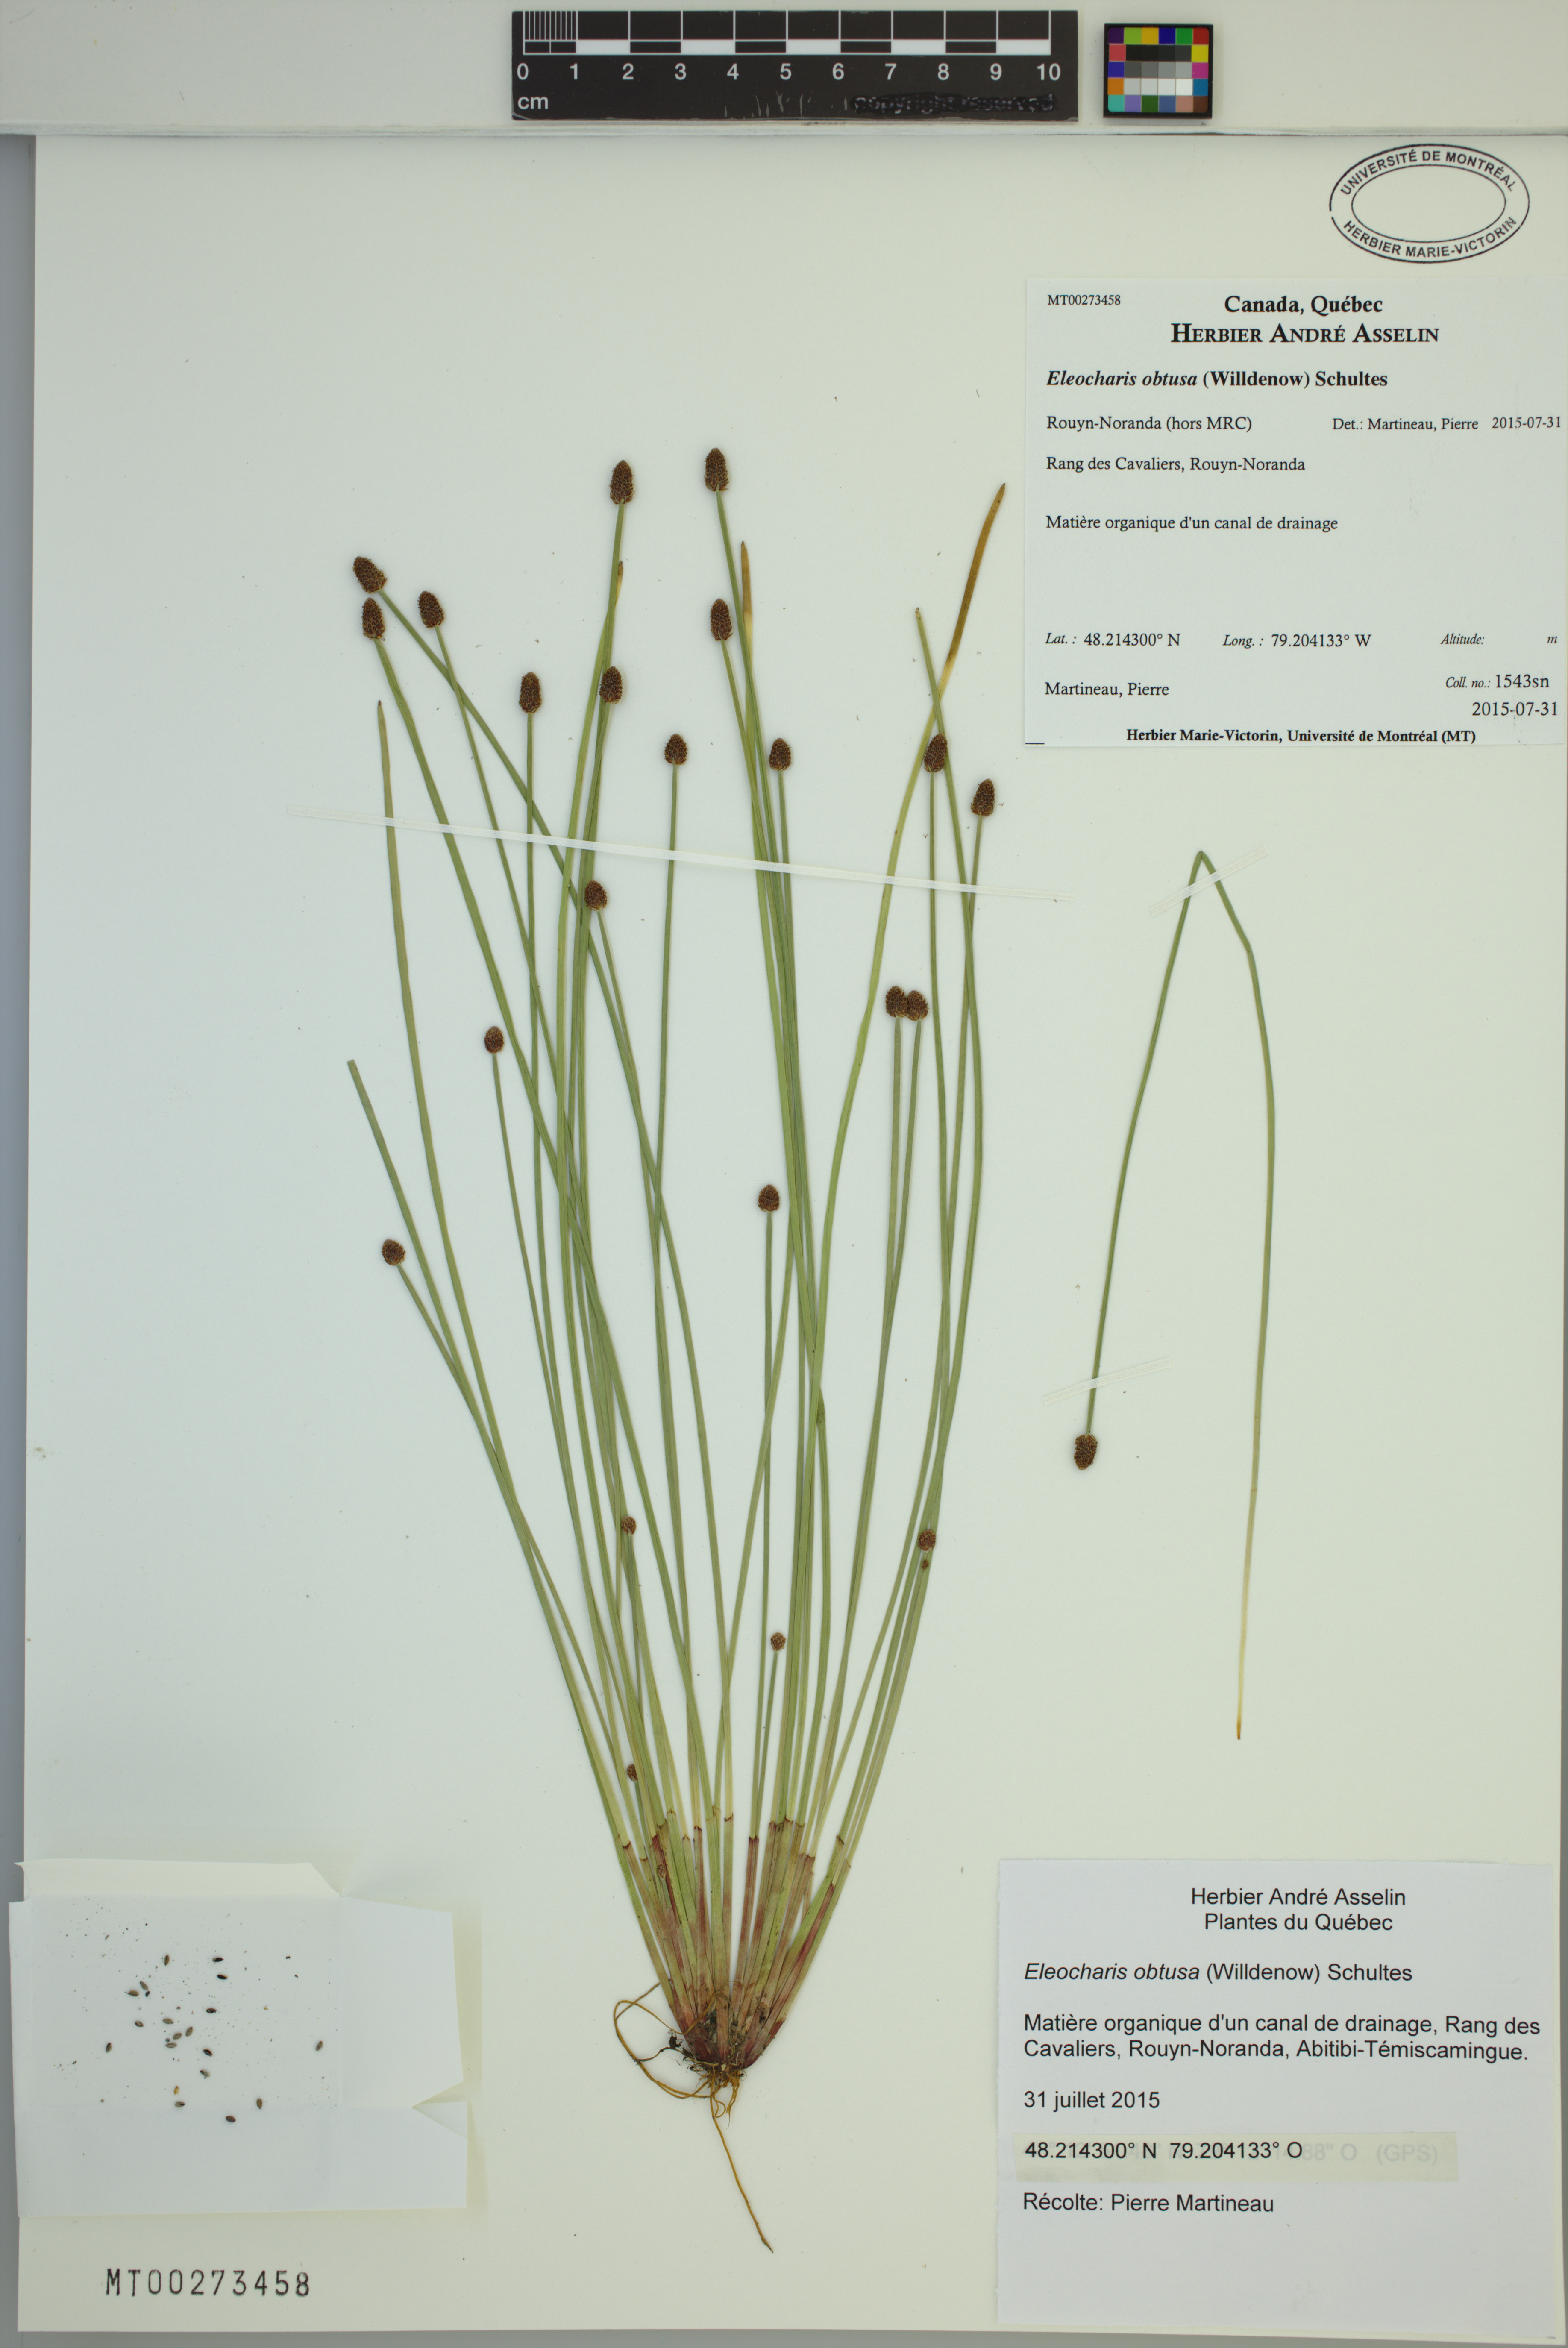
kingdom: Plantae
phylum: Tracheophyta
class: Liliopsida
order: Poales
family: Cyperaceae
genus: Eleocharis
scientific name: Eleocharis obtusa
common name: Blunt spikerush
